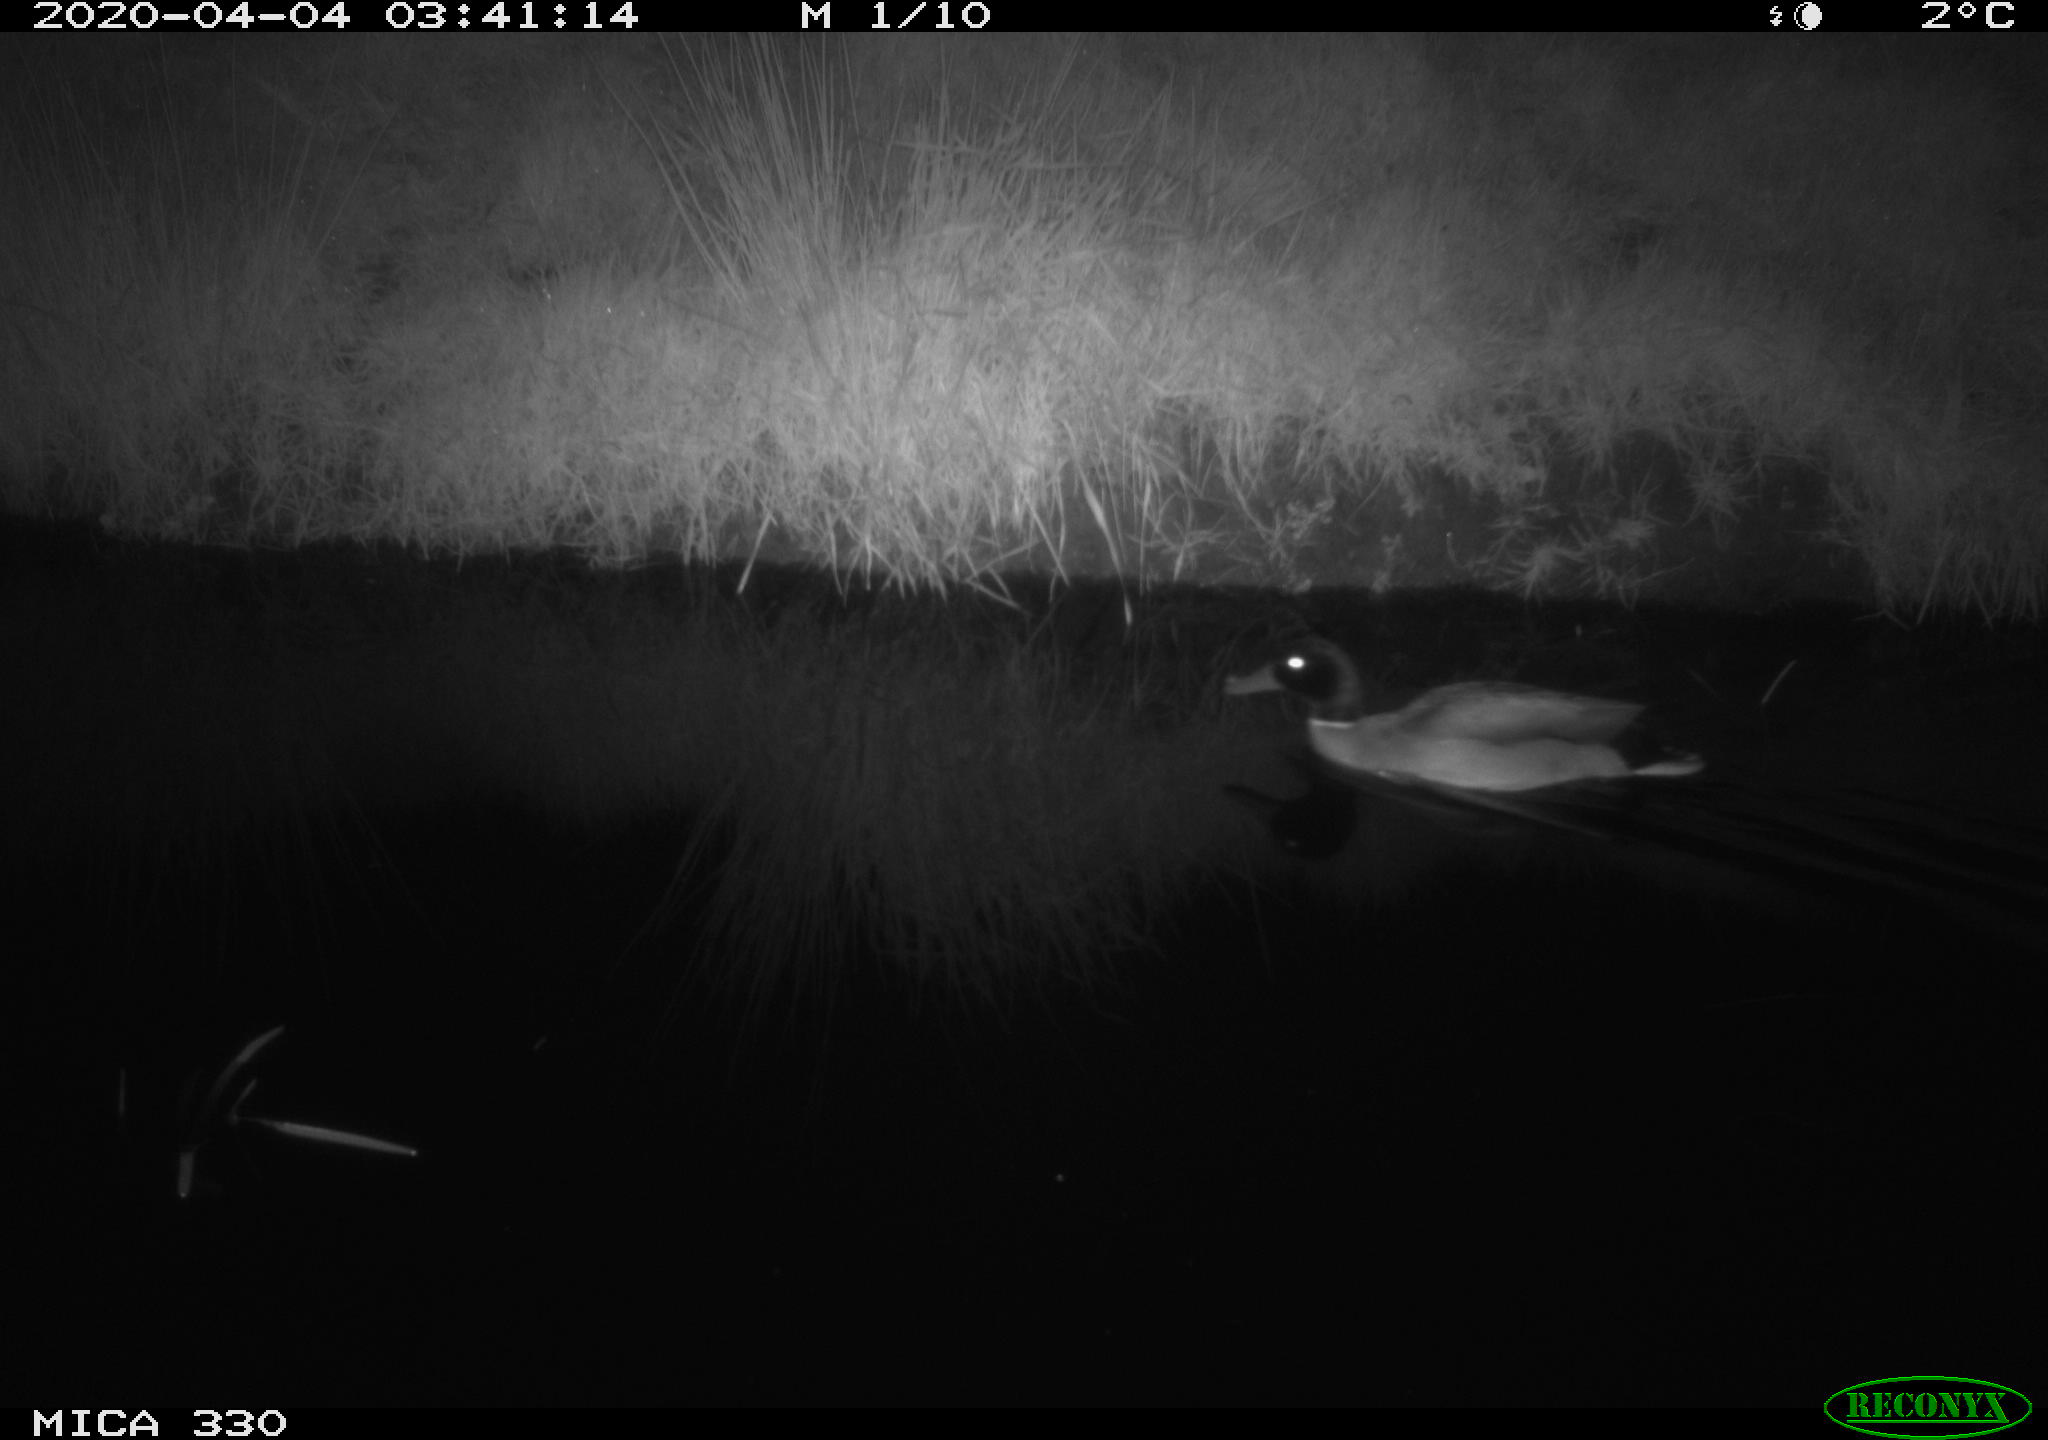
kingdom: Animalia
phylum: Chordata
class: Aves
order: Anseriformes
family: Anatidae
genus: Anas
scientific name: Anas platyrhynchos
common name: Mallard
